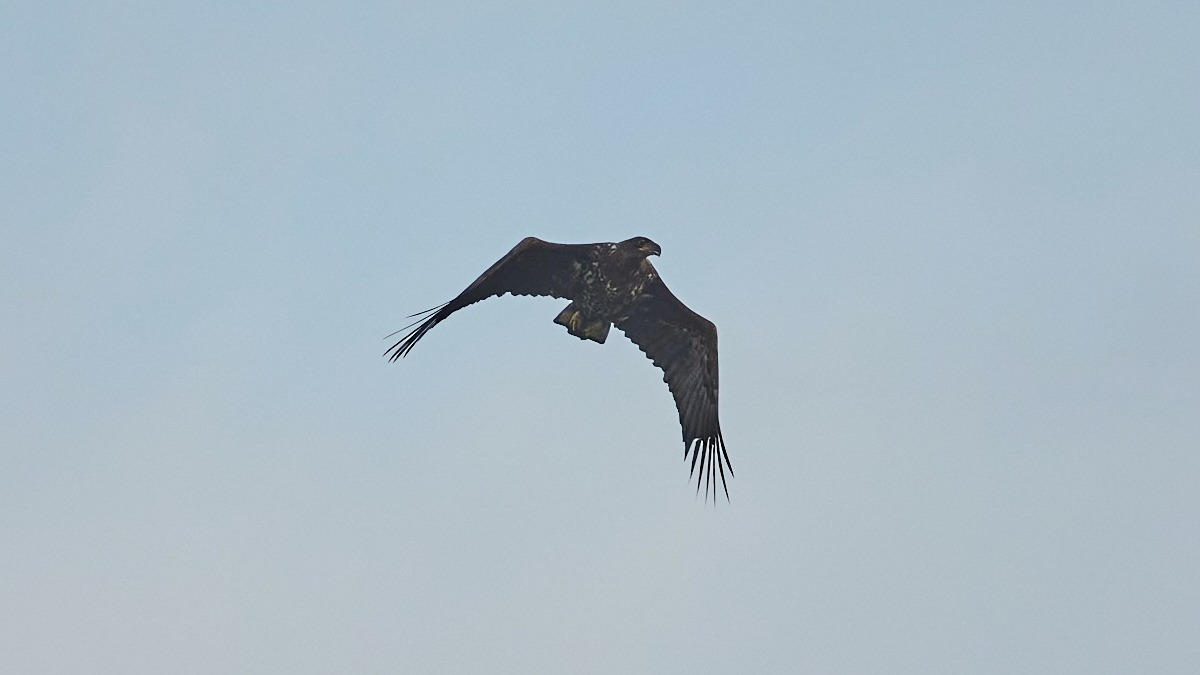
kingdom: Animalia
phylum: Chordata
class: Aves
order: Accipitriformes
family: Accipitridae
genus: Haliaeetus
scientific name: Haliaeetus albicilla
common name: Havørn
